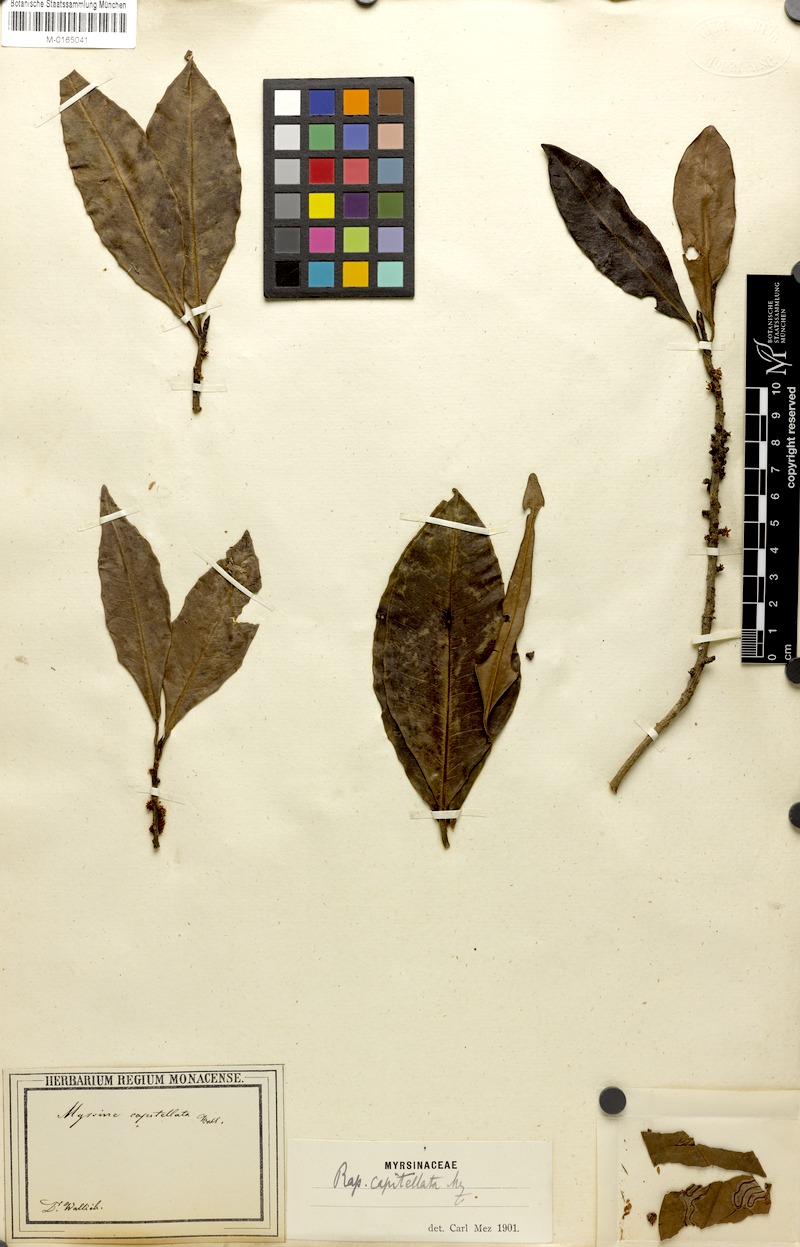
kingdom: Plantae
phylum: Tracheophyta
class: Magnoliopsida
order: Ericales
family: Primulaceae
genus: Myrsine
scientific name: Myrsine capitellata
